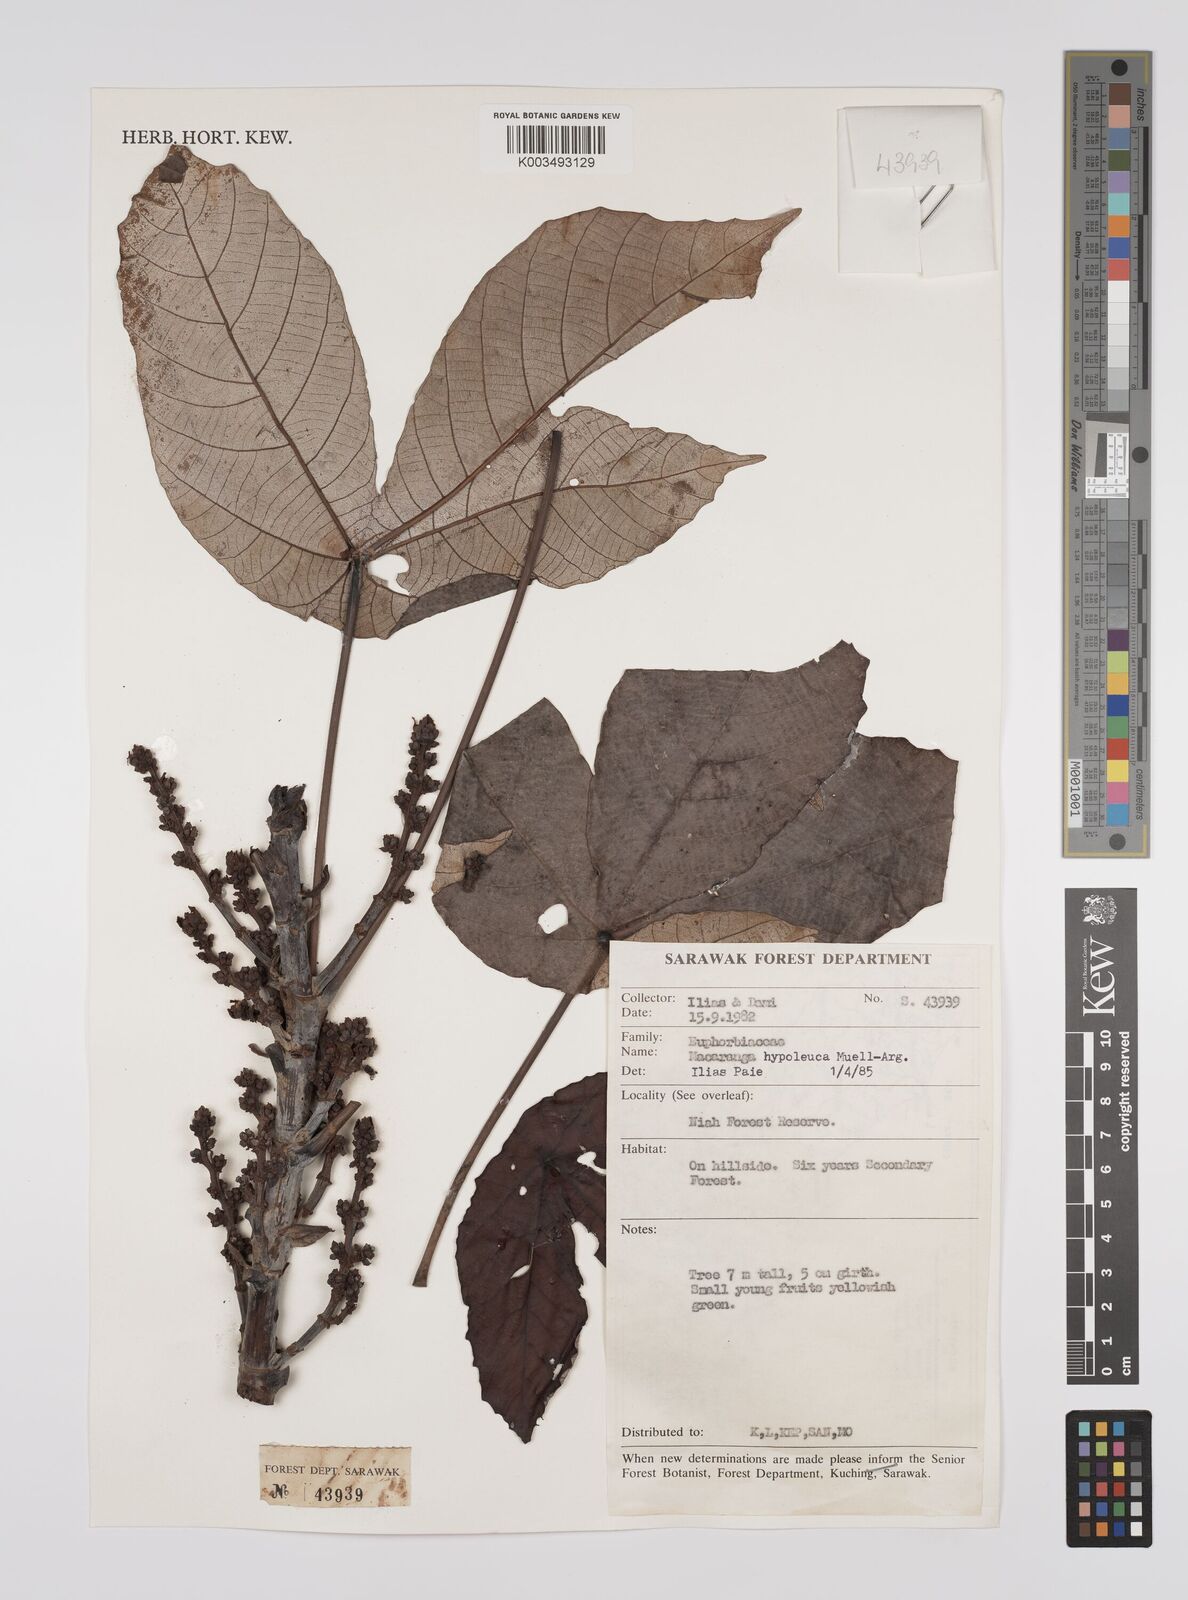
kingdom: Plantae
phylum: Tracheophyta
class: Magnoliopsida
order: Malpighiales
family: Euphorbiaceae
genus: Macaranga
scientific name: Macaranga hypoleuca
